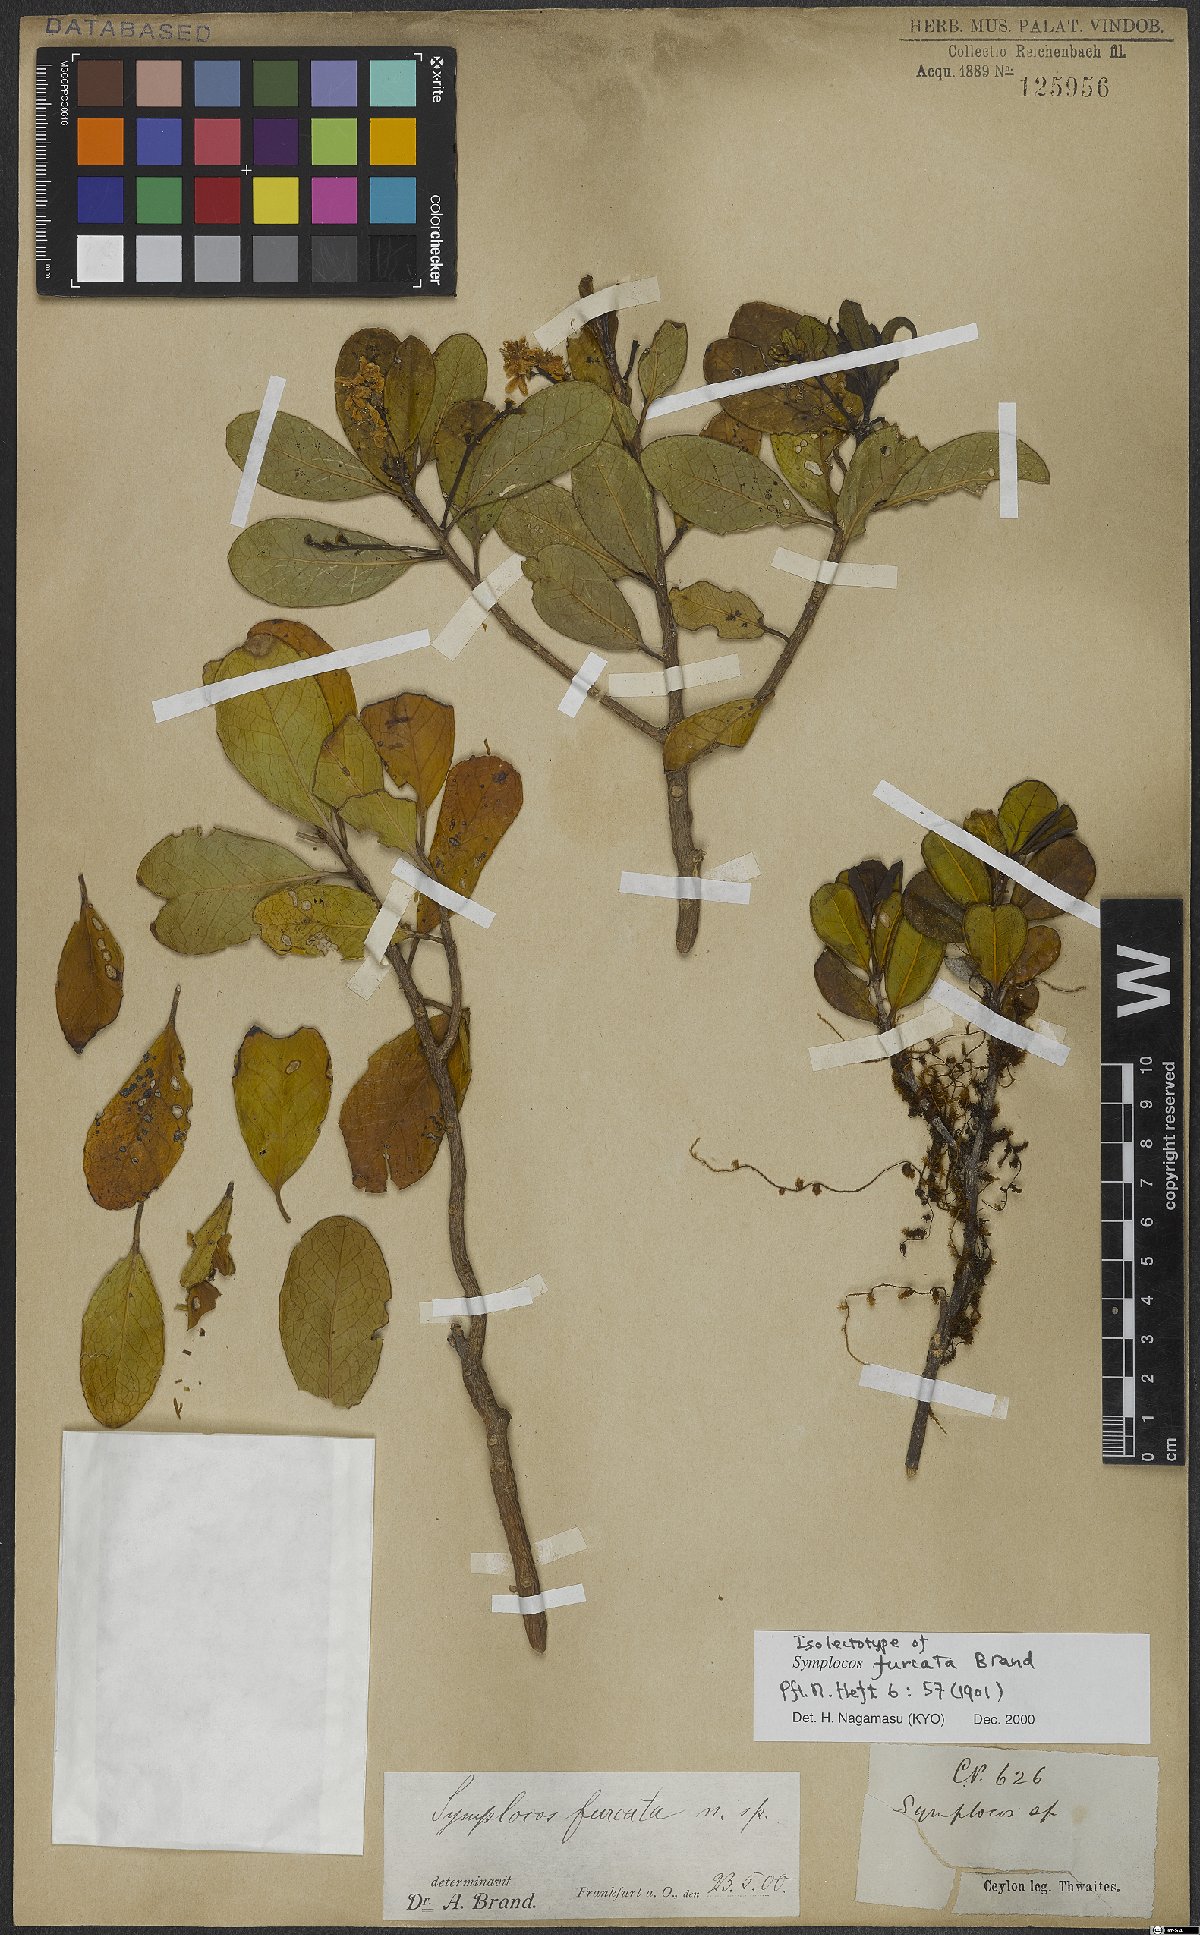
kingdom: Plantae
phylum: Tracheophyta
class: Magnoliopsida
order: Ericales
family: Symplocaceae
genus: Symplocos
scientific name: Symplocos obtusa
